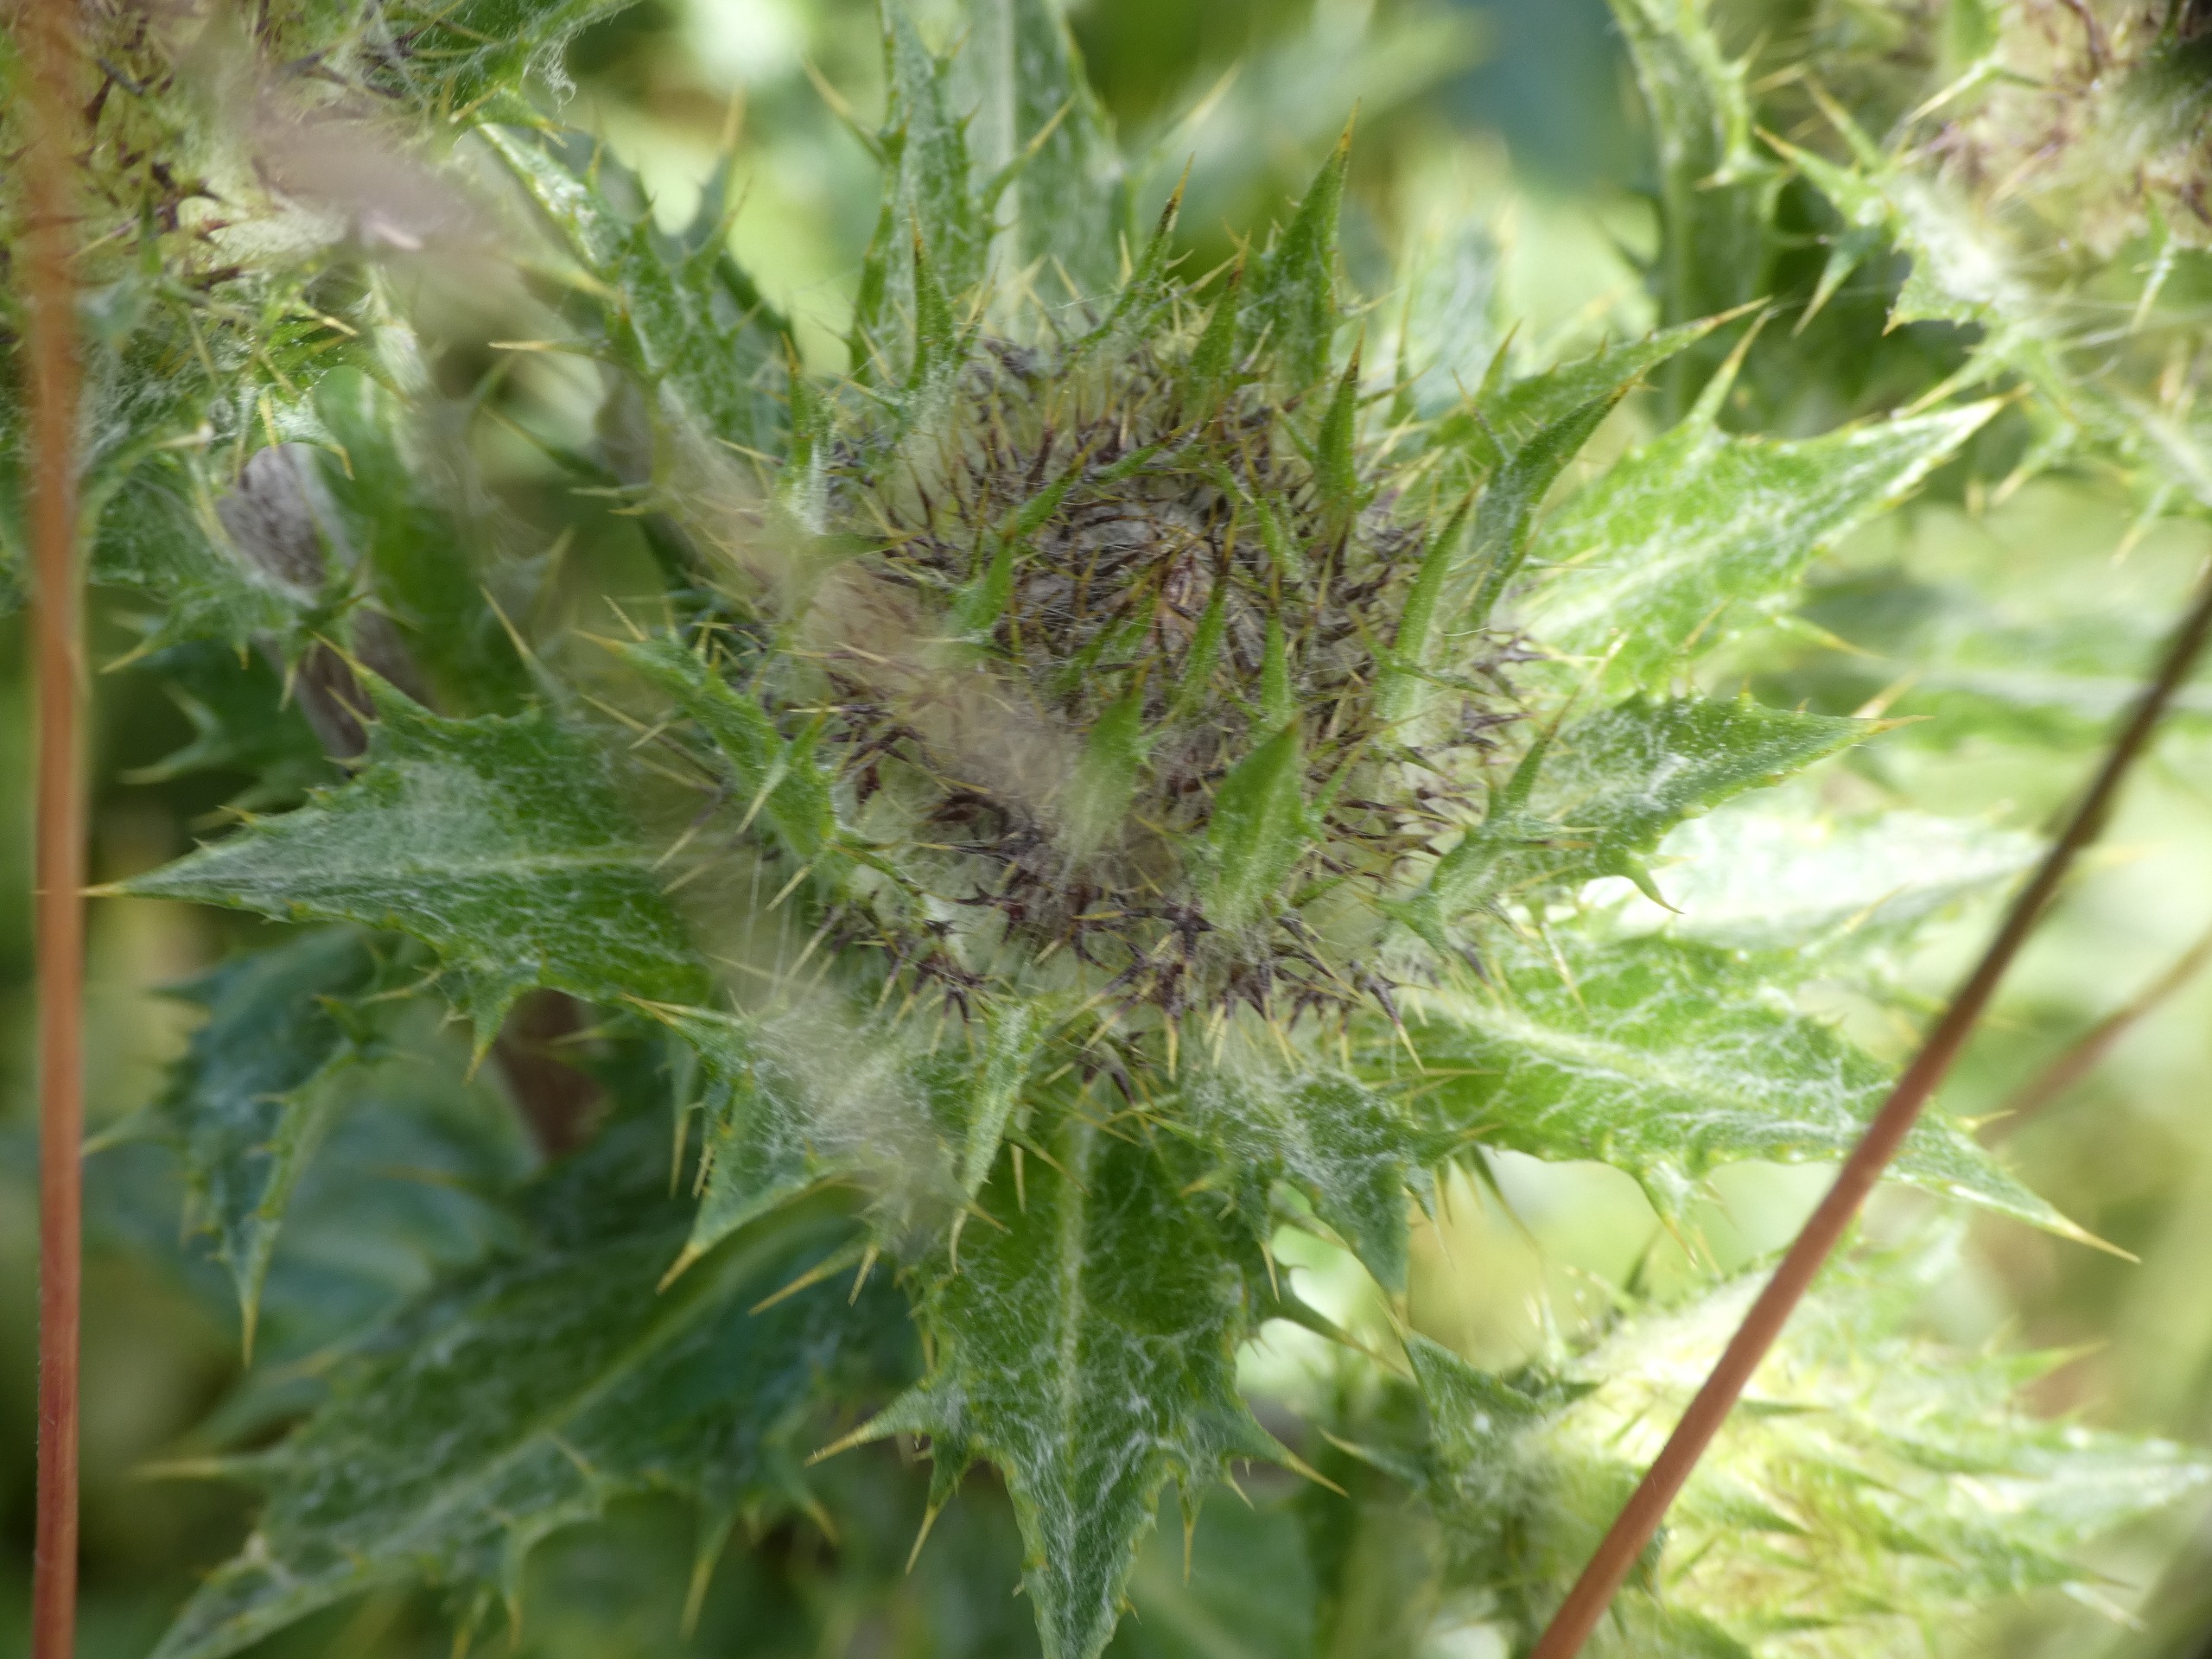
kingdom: Plantae
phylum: Tracheophyta
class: Magnoliopsida
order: Asterales
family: Asteraceae
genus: Carlina
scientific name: Carlina vulgaris
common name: Bakketidsel
